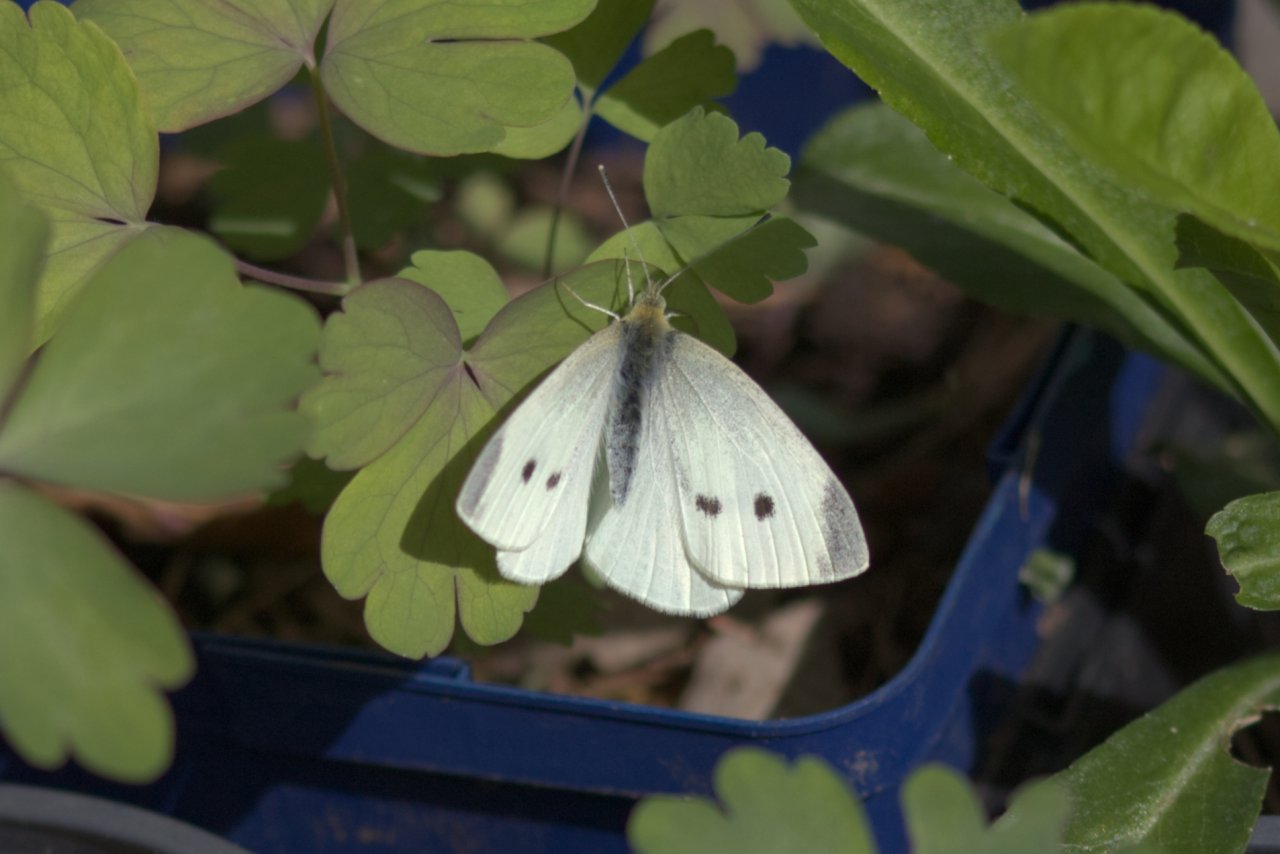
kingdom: Animalia
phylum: Arthropoda
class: Insecta
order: Lepidoptera
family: Pieridae
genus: Pieris
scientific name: Pieris rapae
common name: Cabbage White
